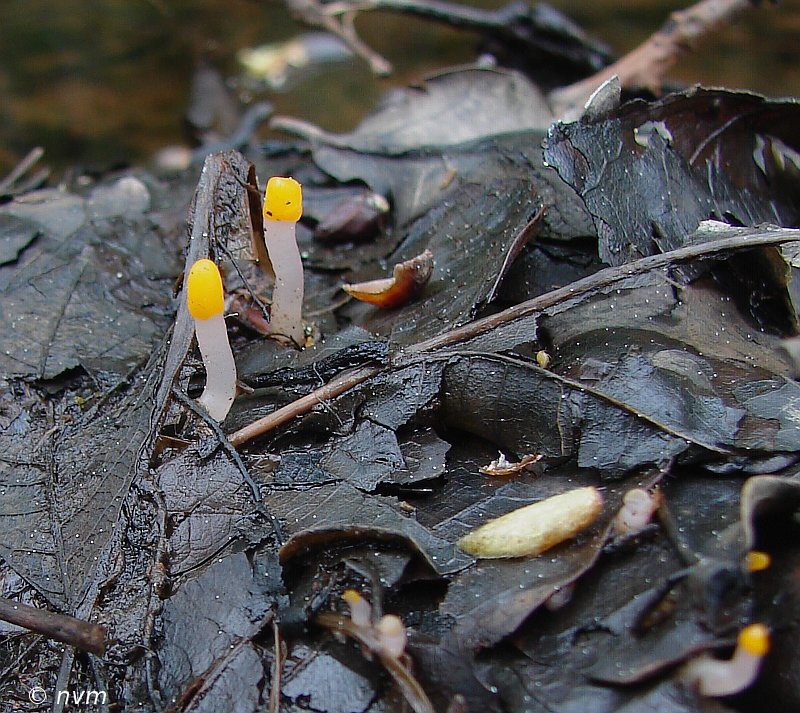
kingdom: Fungi
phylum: Ascomycota
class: Leotiomycetes
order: Helotiales
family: Cenangiaceae
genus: Mitrula
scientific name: Mitrula paludosa
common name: gul nøkketunge
